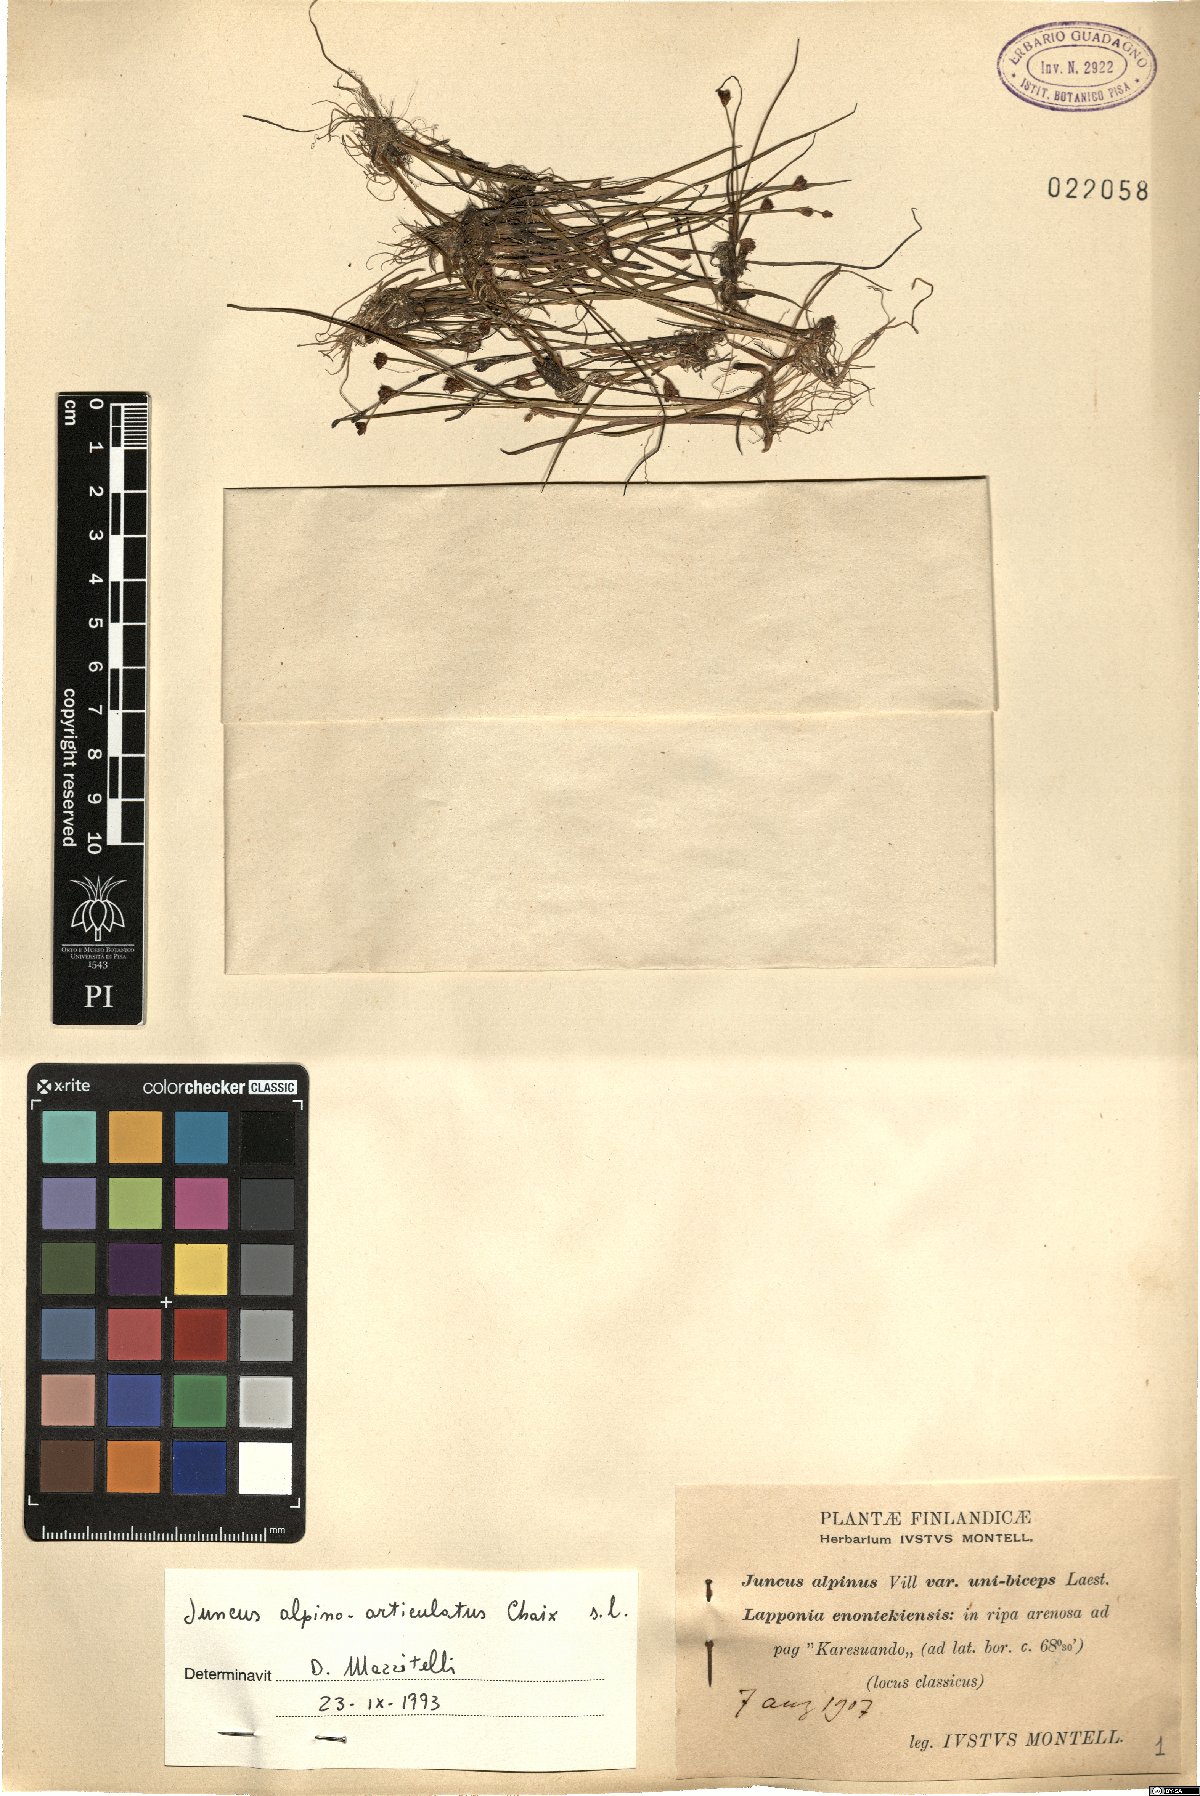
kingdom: Plantae
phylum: Tracheophyta
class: Liliopsida
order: Poales
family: Juncaceae
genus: Juncus
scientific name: Juncus alpinoarticulatus
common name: Alpine rush
